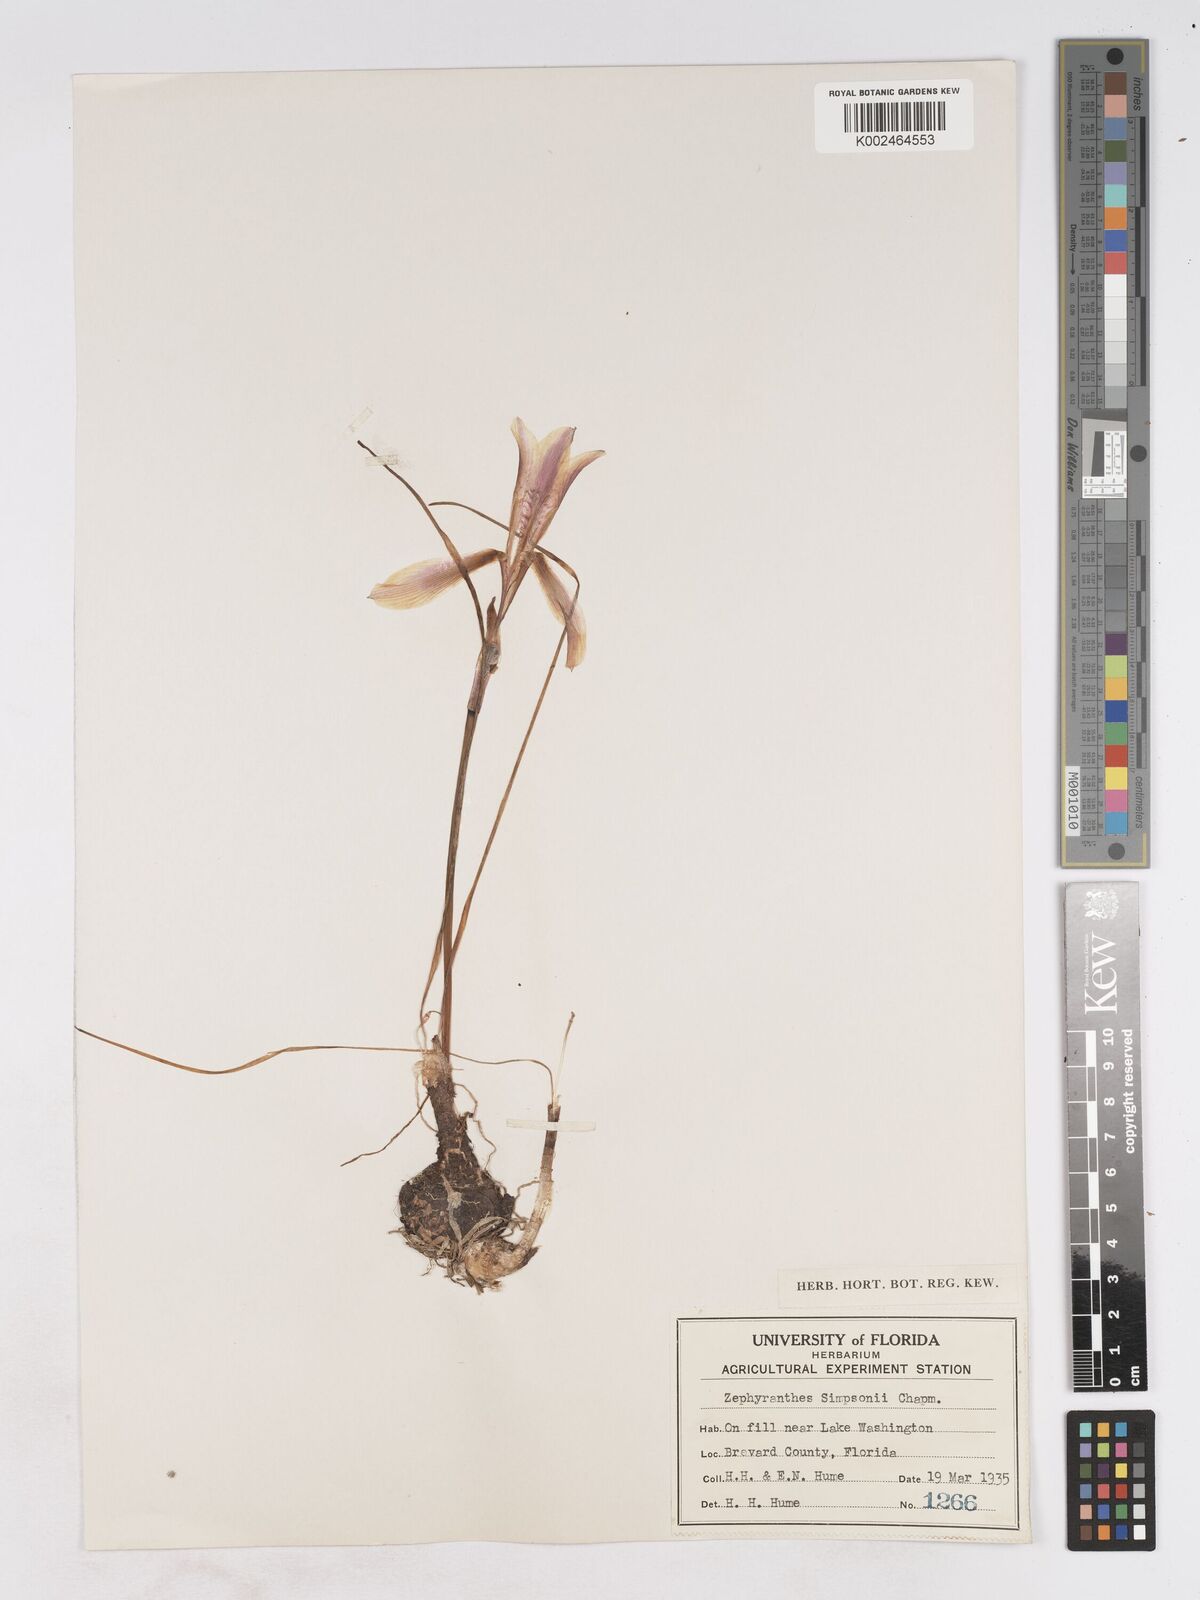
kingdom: Plantae
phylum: Tracheophyta
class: Liliopsida
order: Asparagales
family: Amaryllidaceae
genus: Zephyranthes
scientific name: Zephyranthes simpsonii
